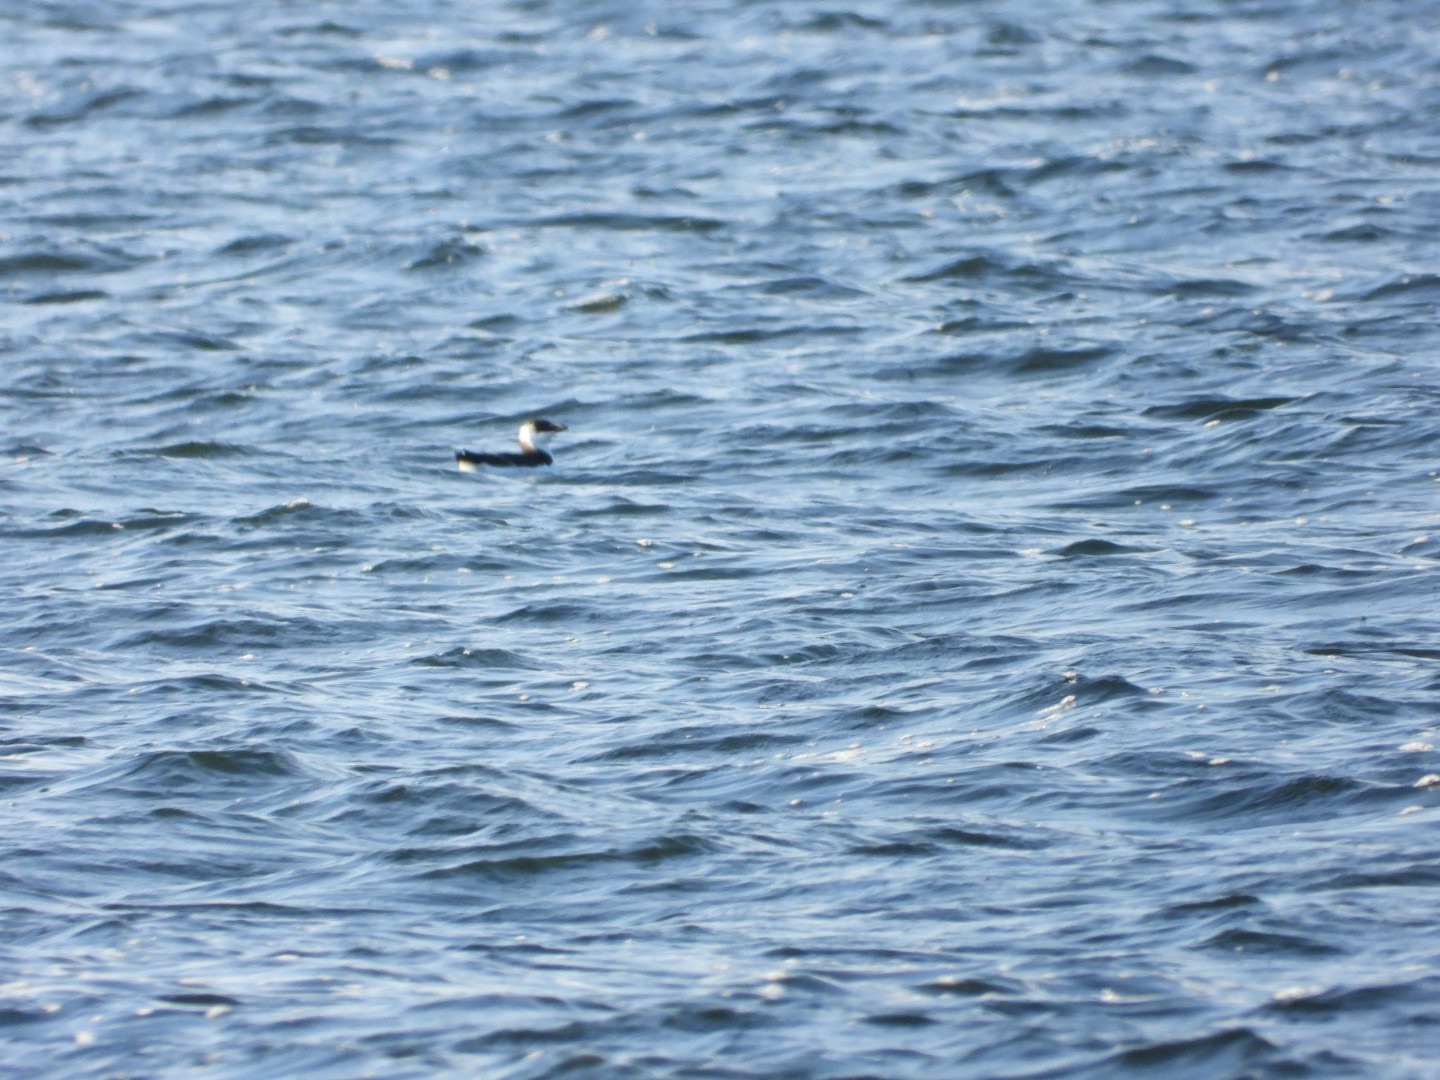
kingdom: Animalia
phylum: Chordata
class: Aves
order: Charadriiformes
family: Alcidae
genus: Alca
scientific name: Alca torda
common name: Alk
